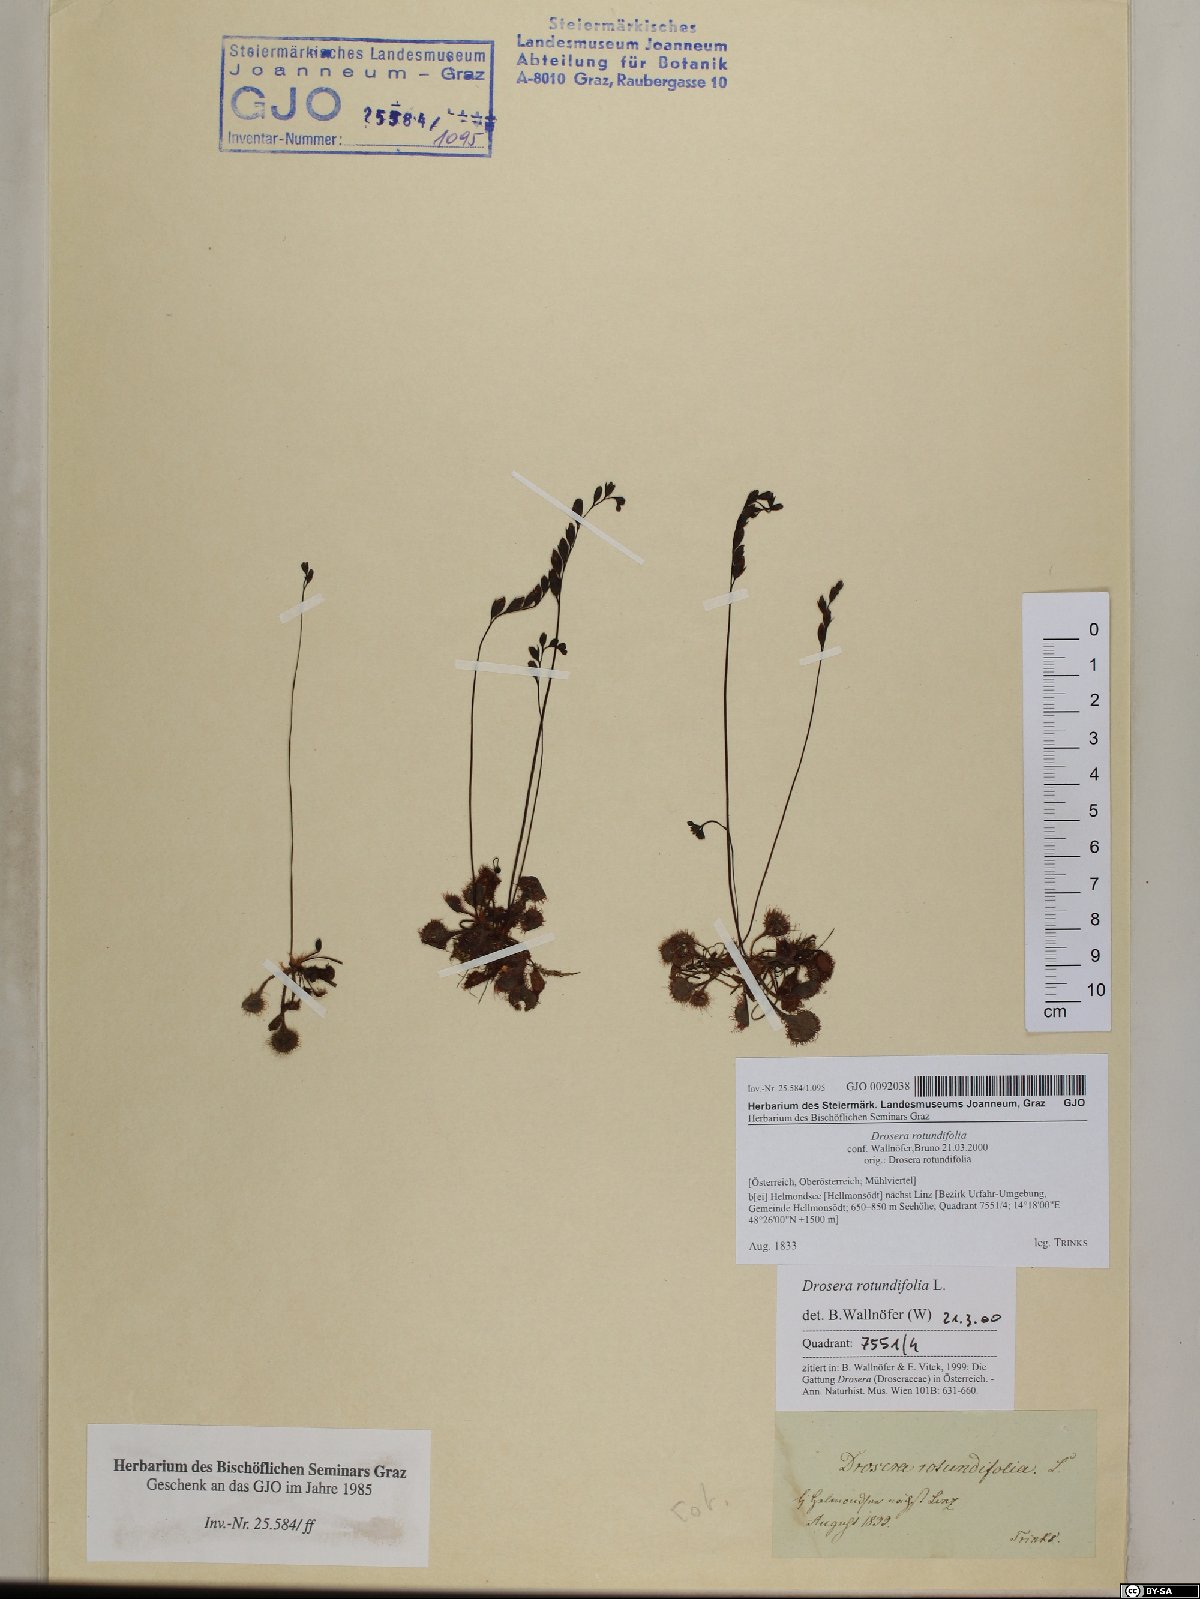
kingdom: Plantae
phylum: Tracheophyta
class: Magnoliopsida
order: Caryophyllales
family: Droseraceae
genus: Drosera
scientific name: Drosera rotundifolia
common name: Round-leaved sundew
